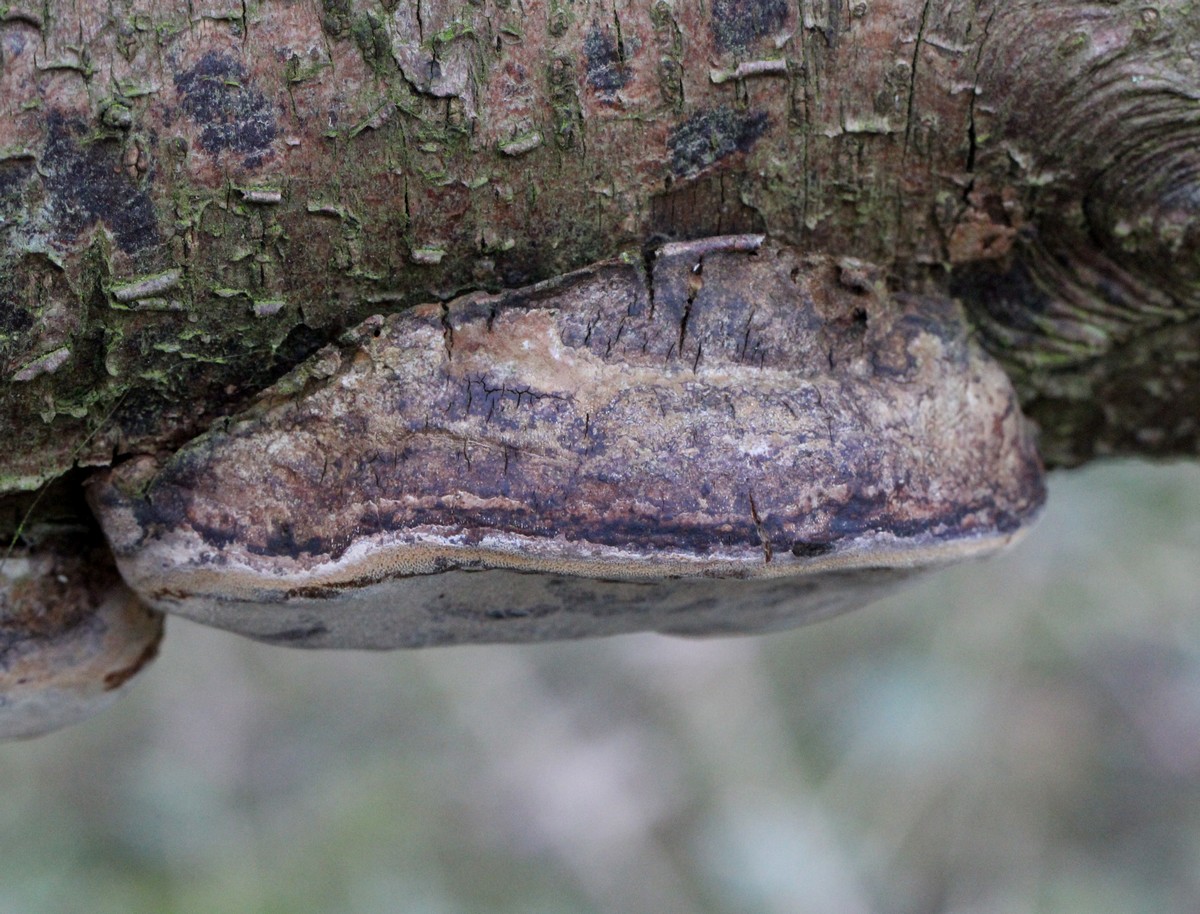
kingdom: Fungi
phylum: Basidiomycota
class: Agaricomycetes
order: Hymenochaetales
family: Hymenochaetaceae
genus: Phellinus
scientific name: Phellinus pomaceus
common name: blomme-ildporesvamp
